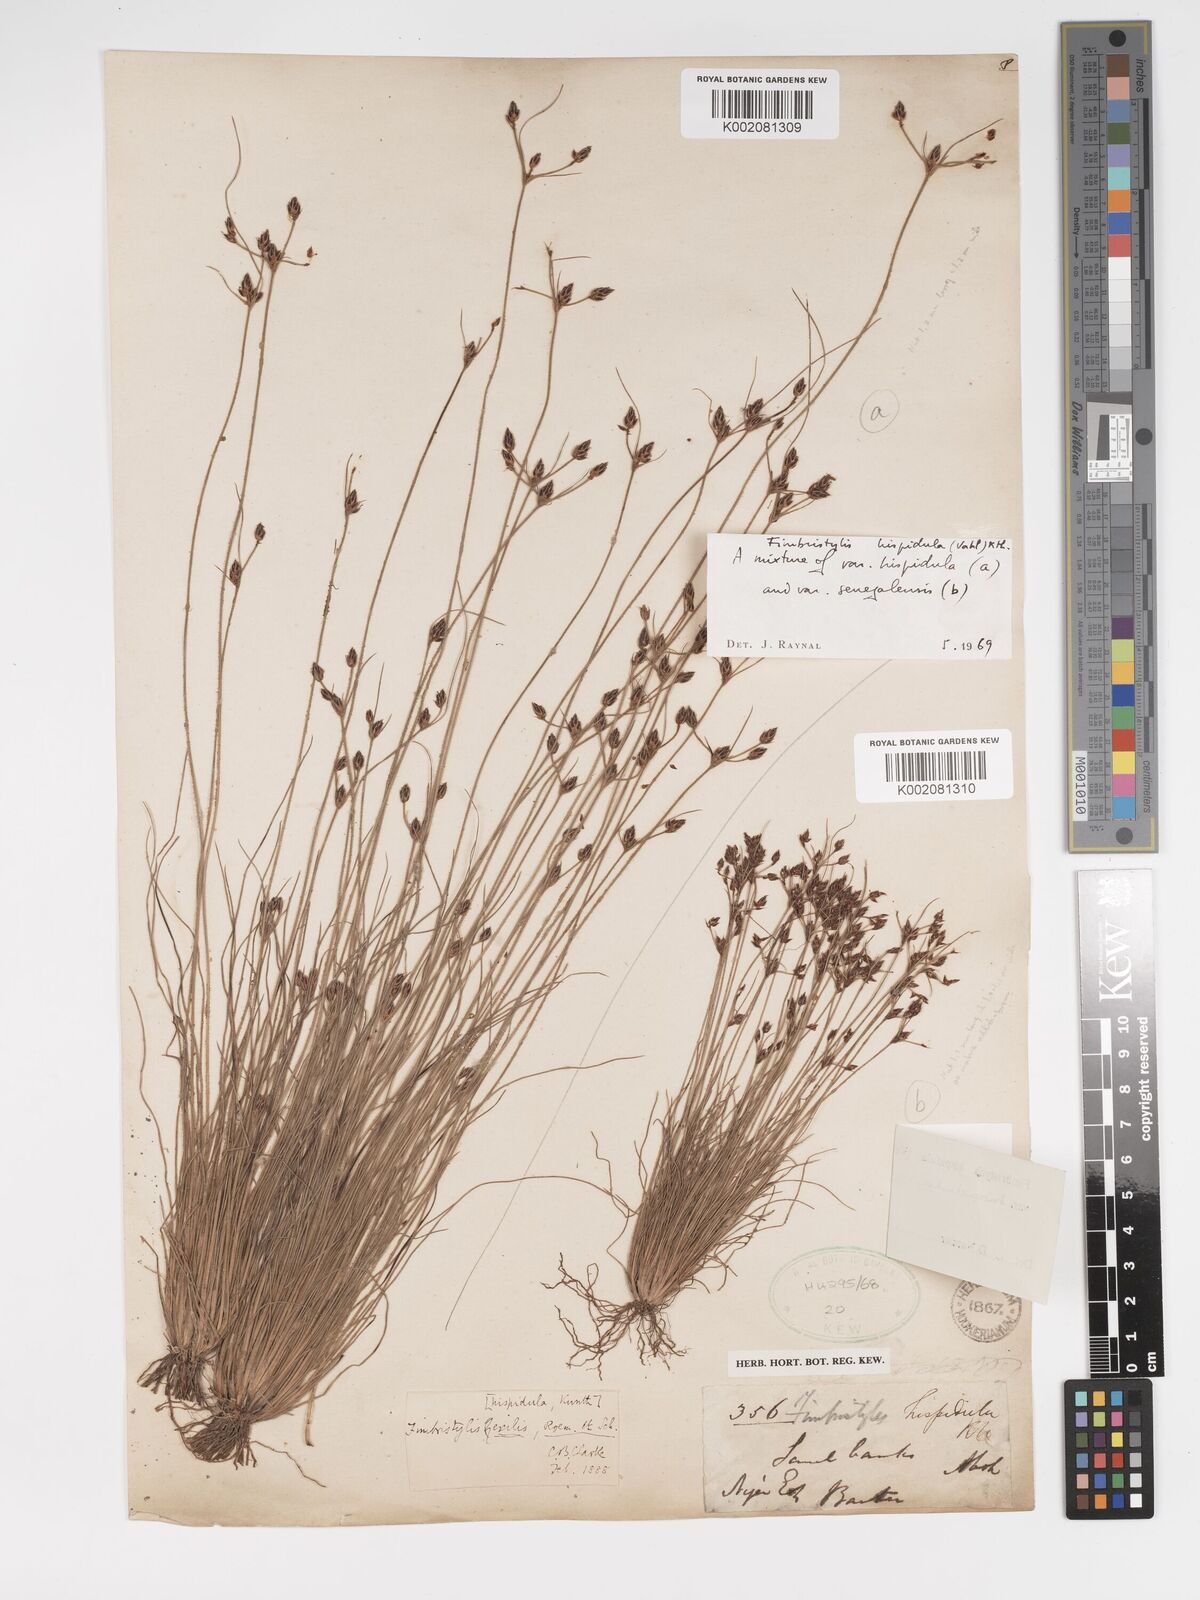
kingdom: Plantae
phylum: Tracheophyta
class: Liliopsida
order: Poales
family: Cyperaceae
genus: Bulbostylis
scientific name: Bulbostylis hispidula
